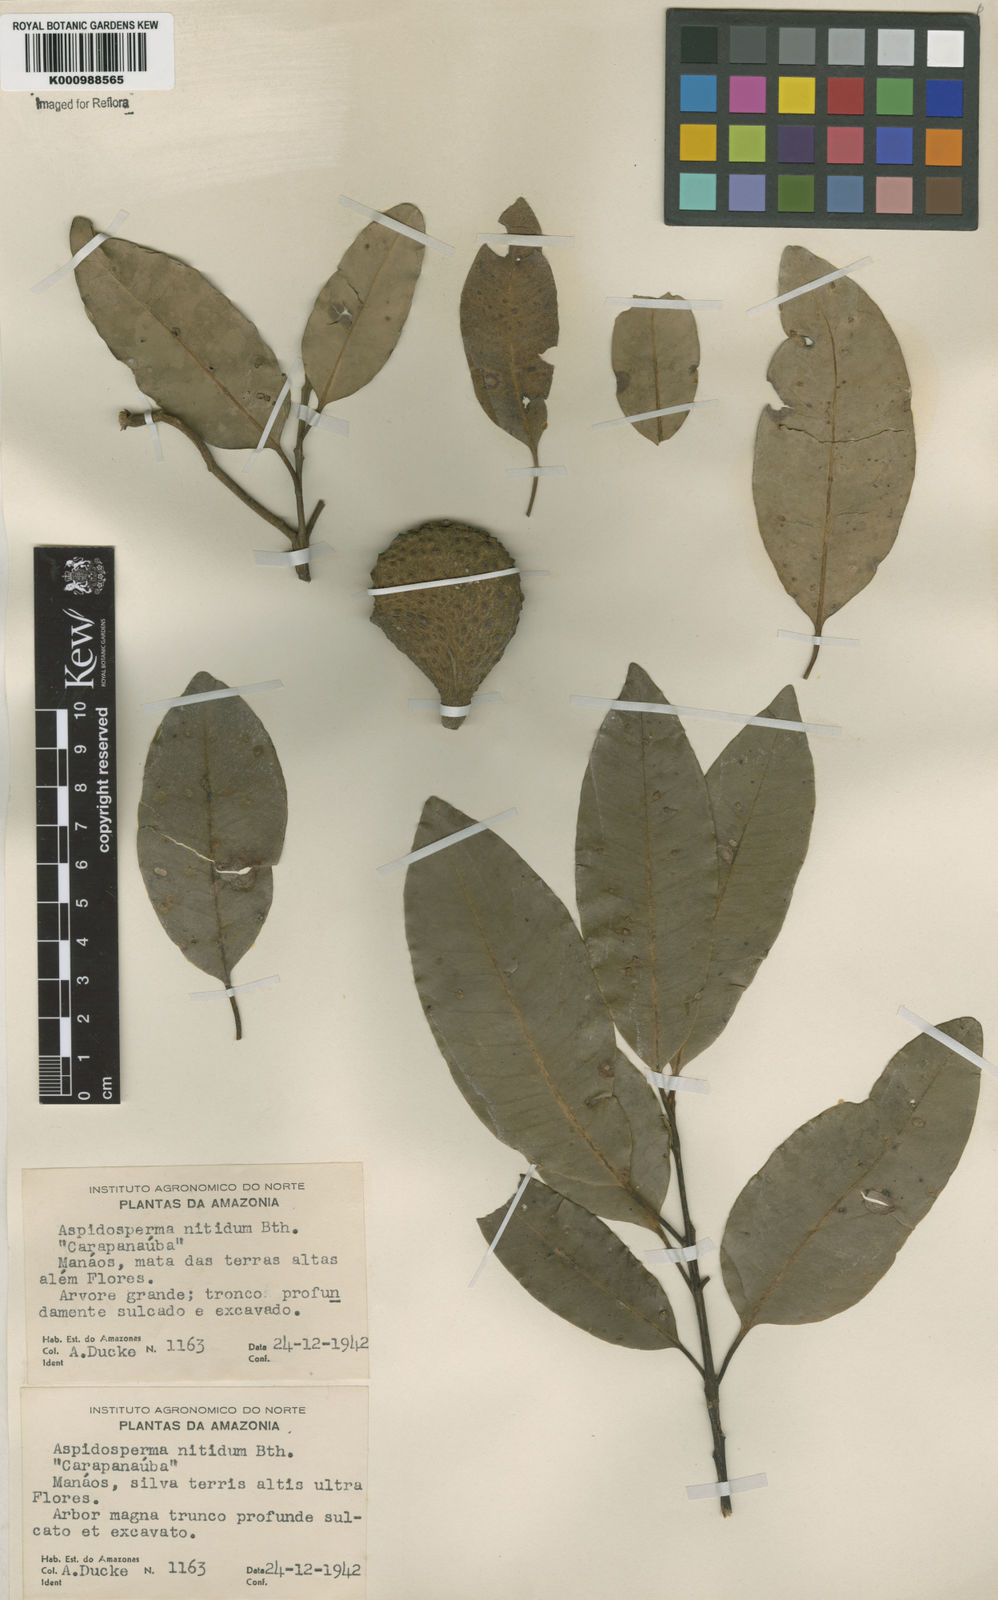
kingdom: Plantae
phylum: Tracheophyta
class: Magnoliopsida
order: Gentianales
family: Apocynaceae
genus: Aspidosperma
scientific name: Aspidosperma
